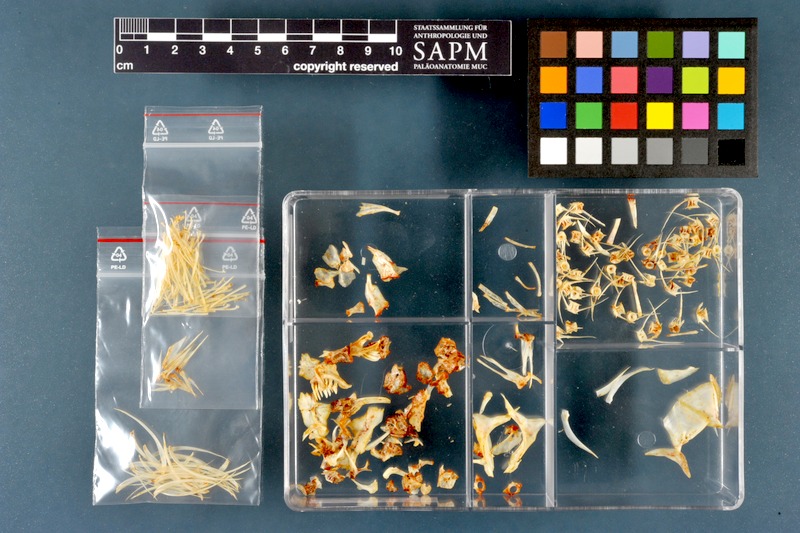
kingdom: Animalia
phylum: Chordata
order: Cypriniformes
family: Cyprinidae
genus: Chondrostoma
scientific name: Chondrostoma regium
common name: Mesopotamian nase
